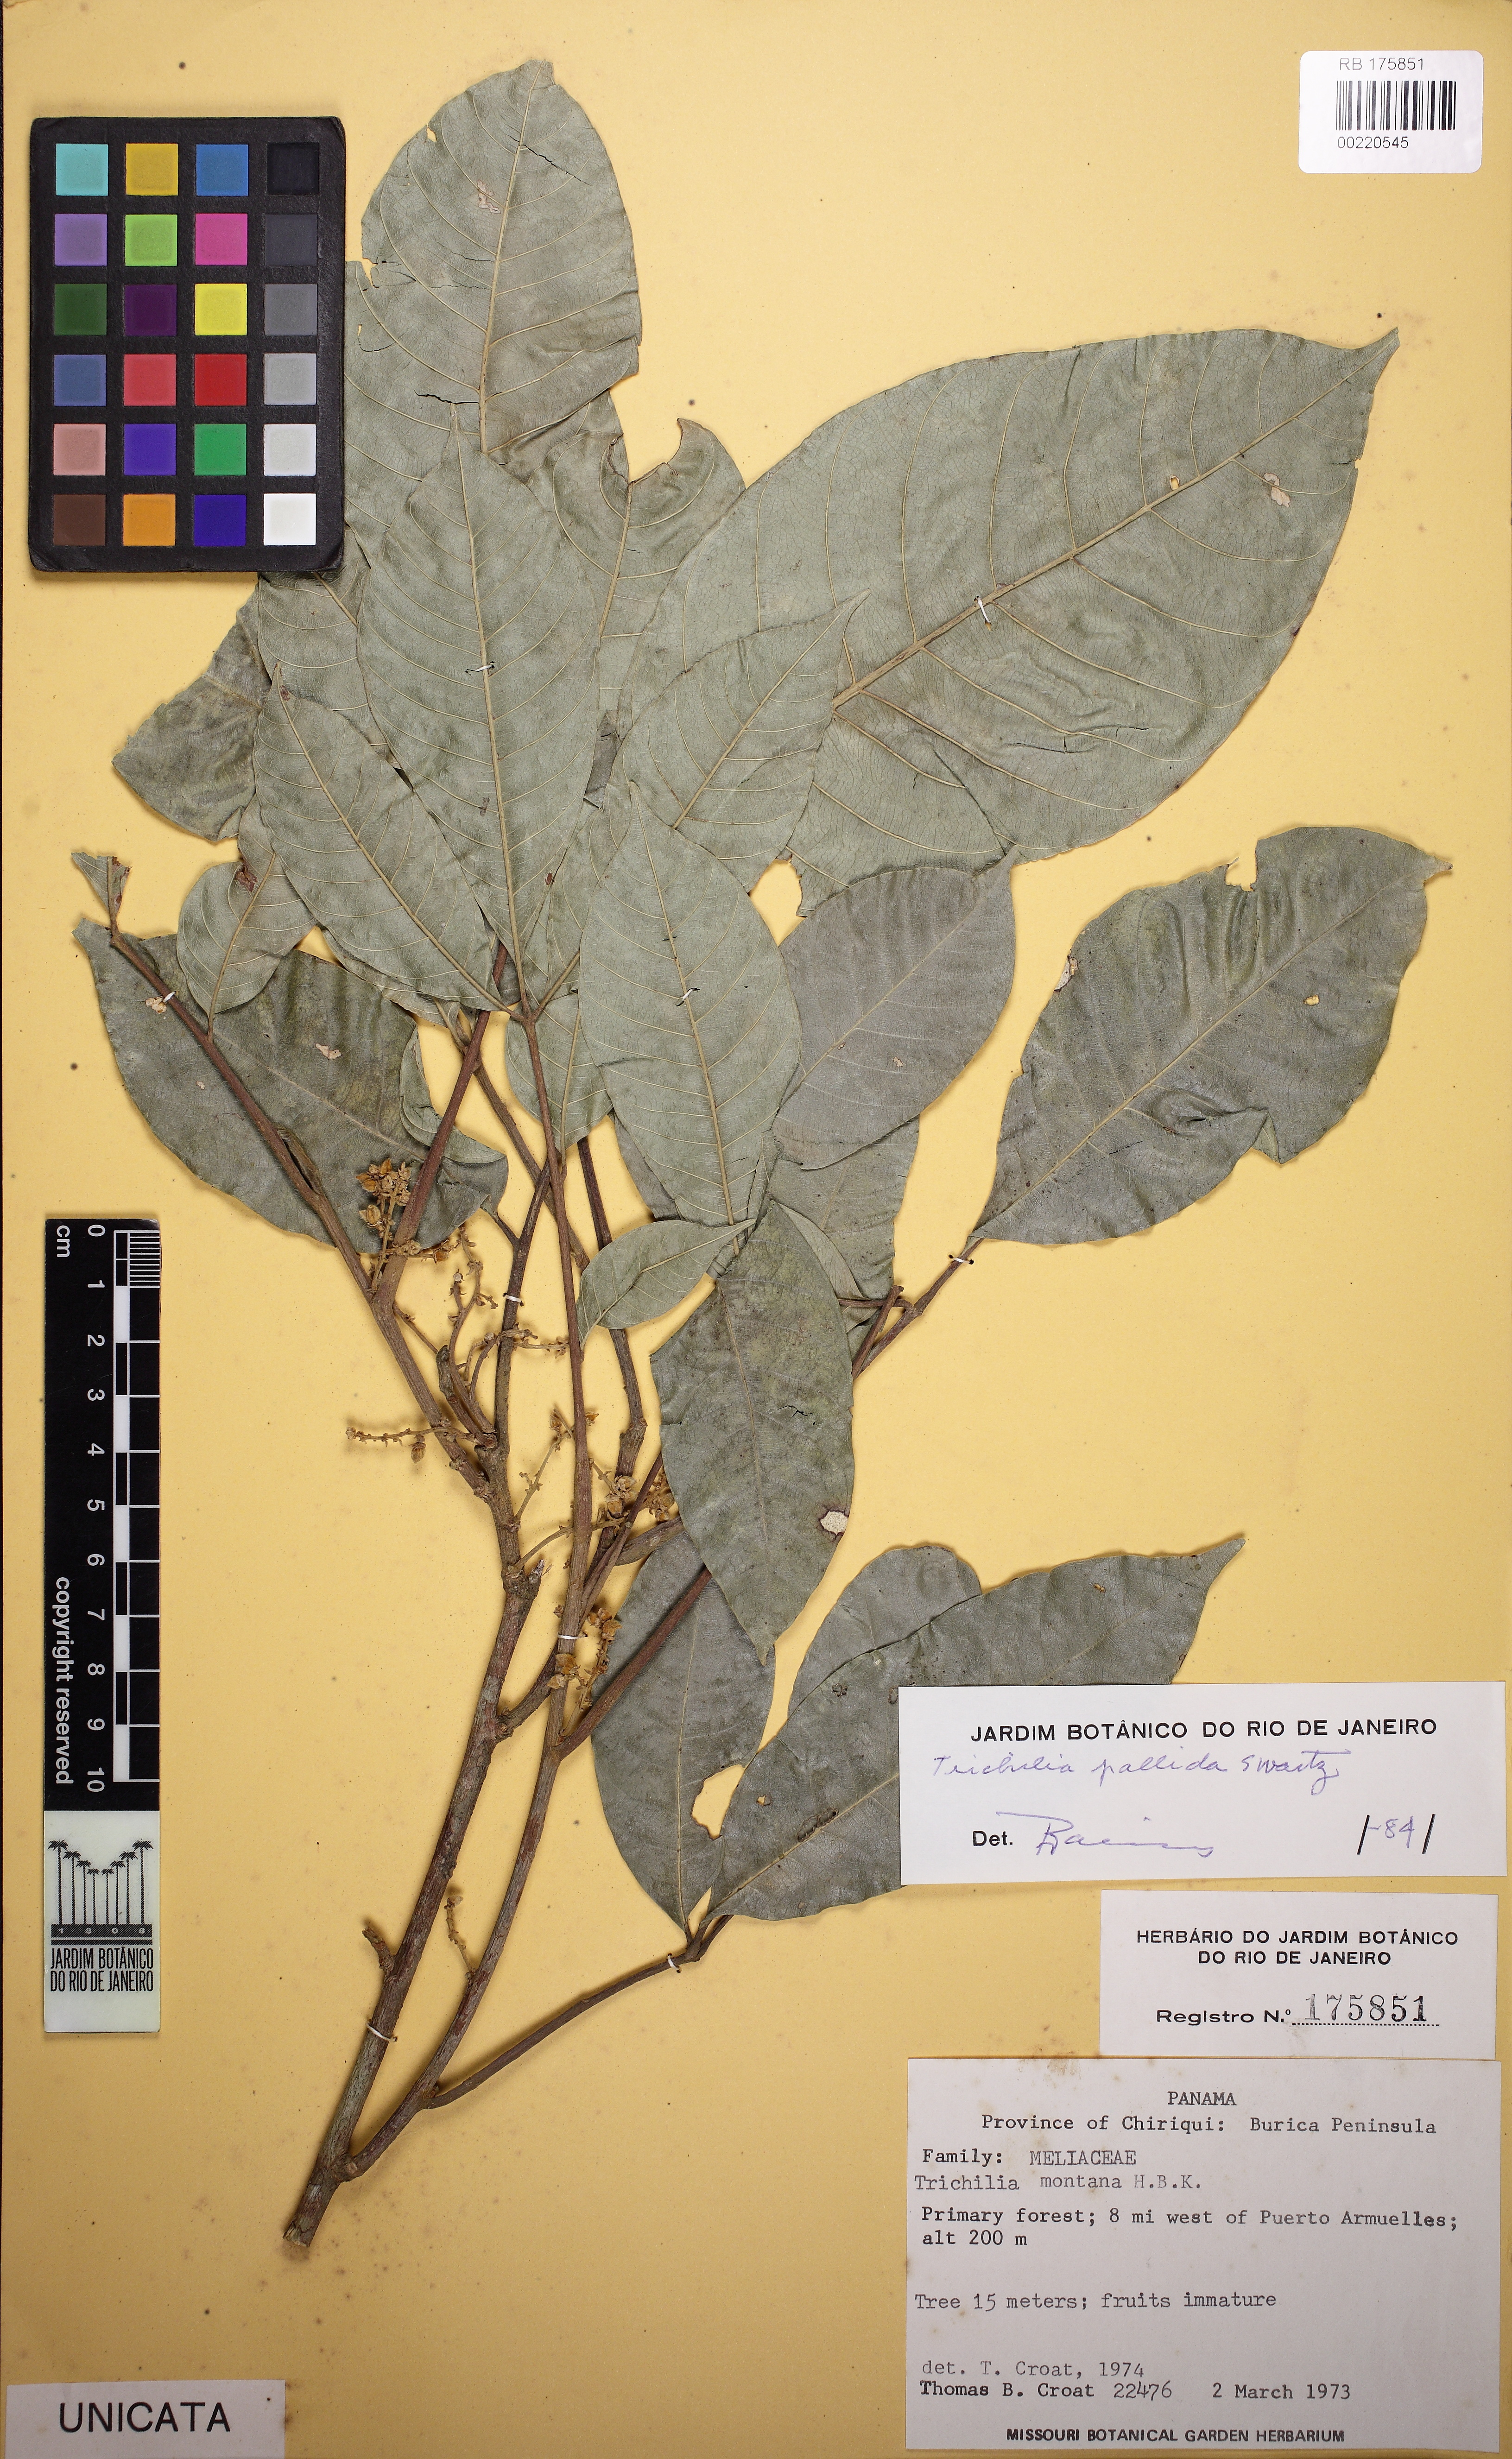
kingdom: Plantae
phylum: Tracheophyta
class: Magnoliopsida
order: Sapindales
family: Meliaceae
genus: Trichilia
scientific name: Trichilia pallida
